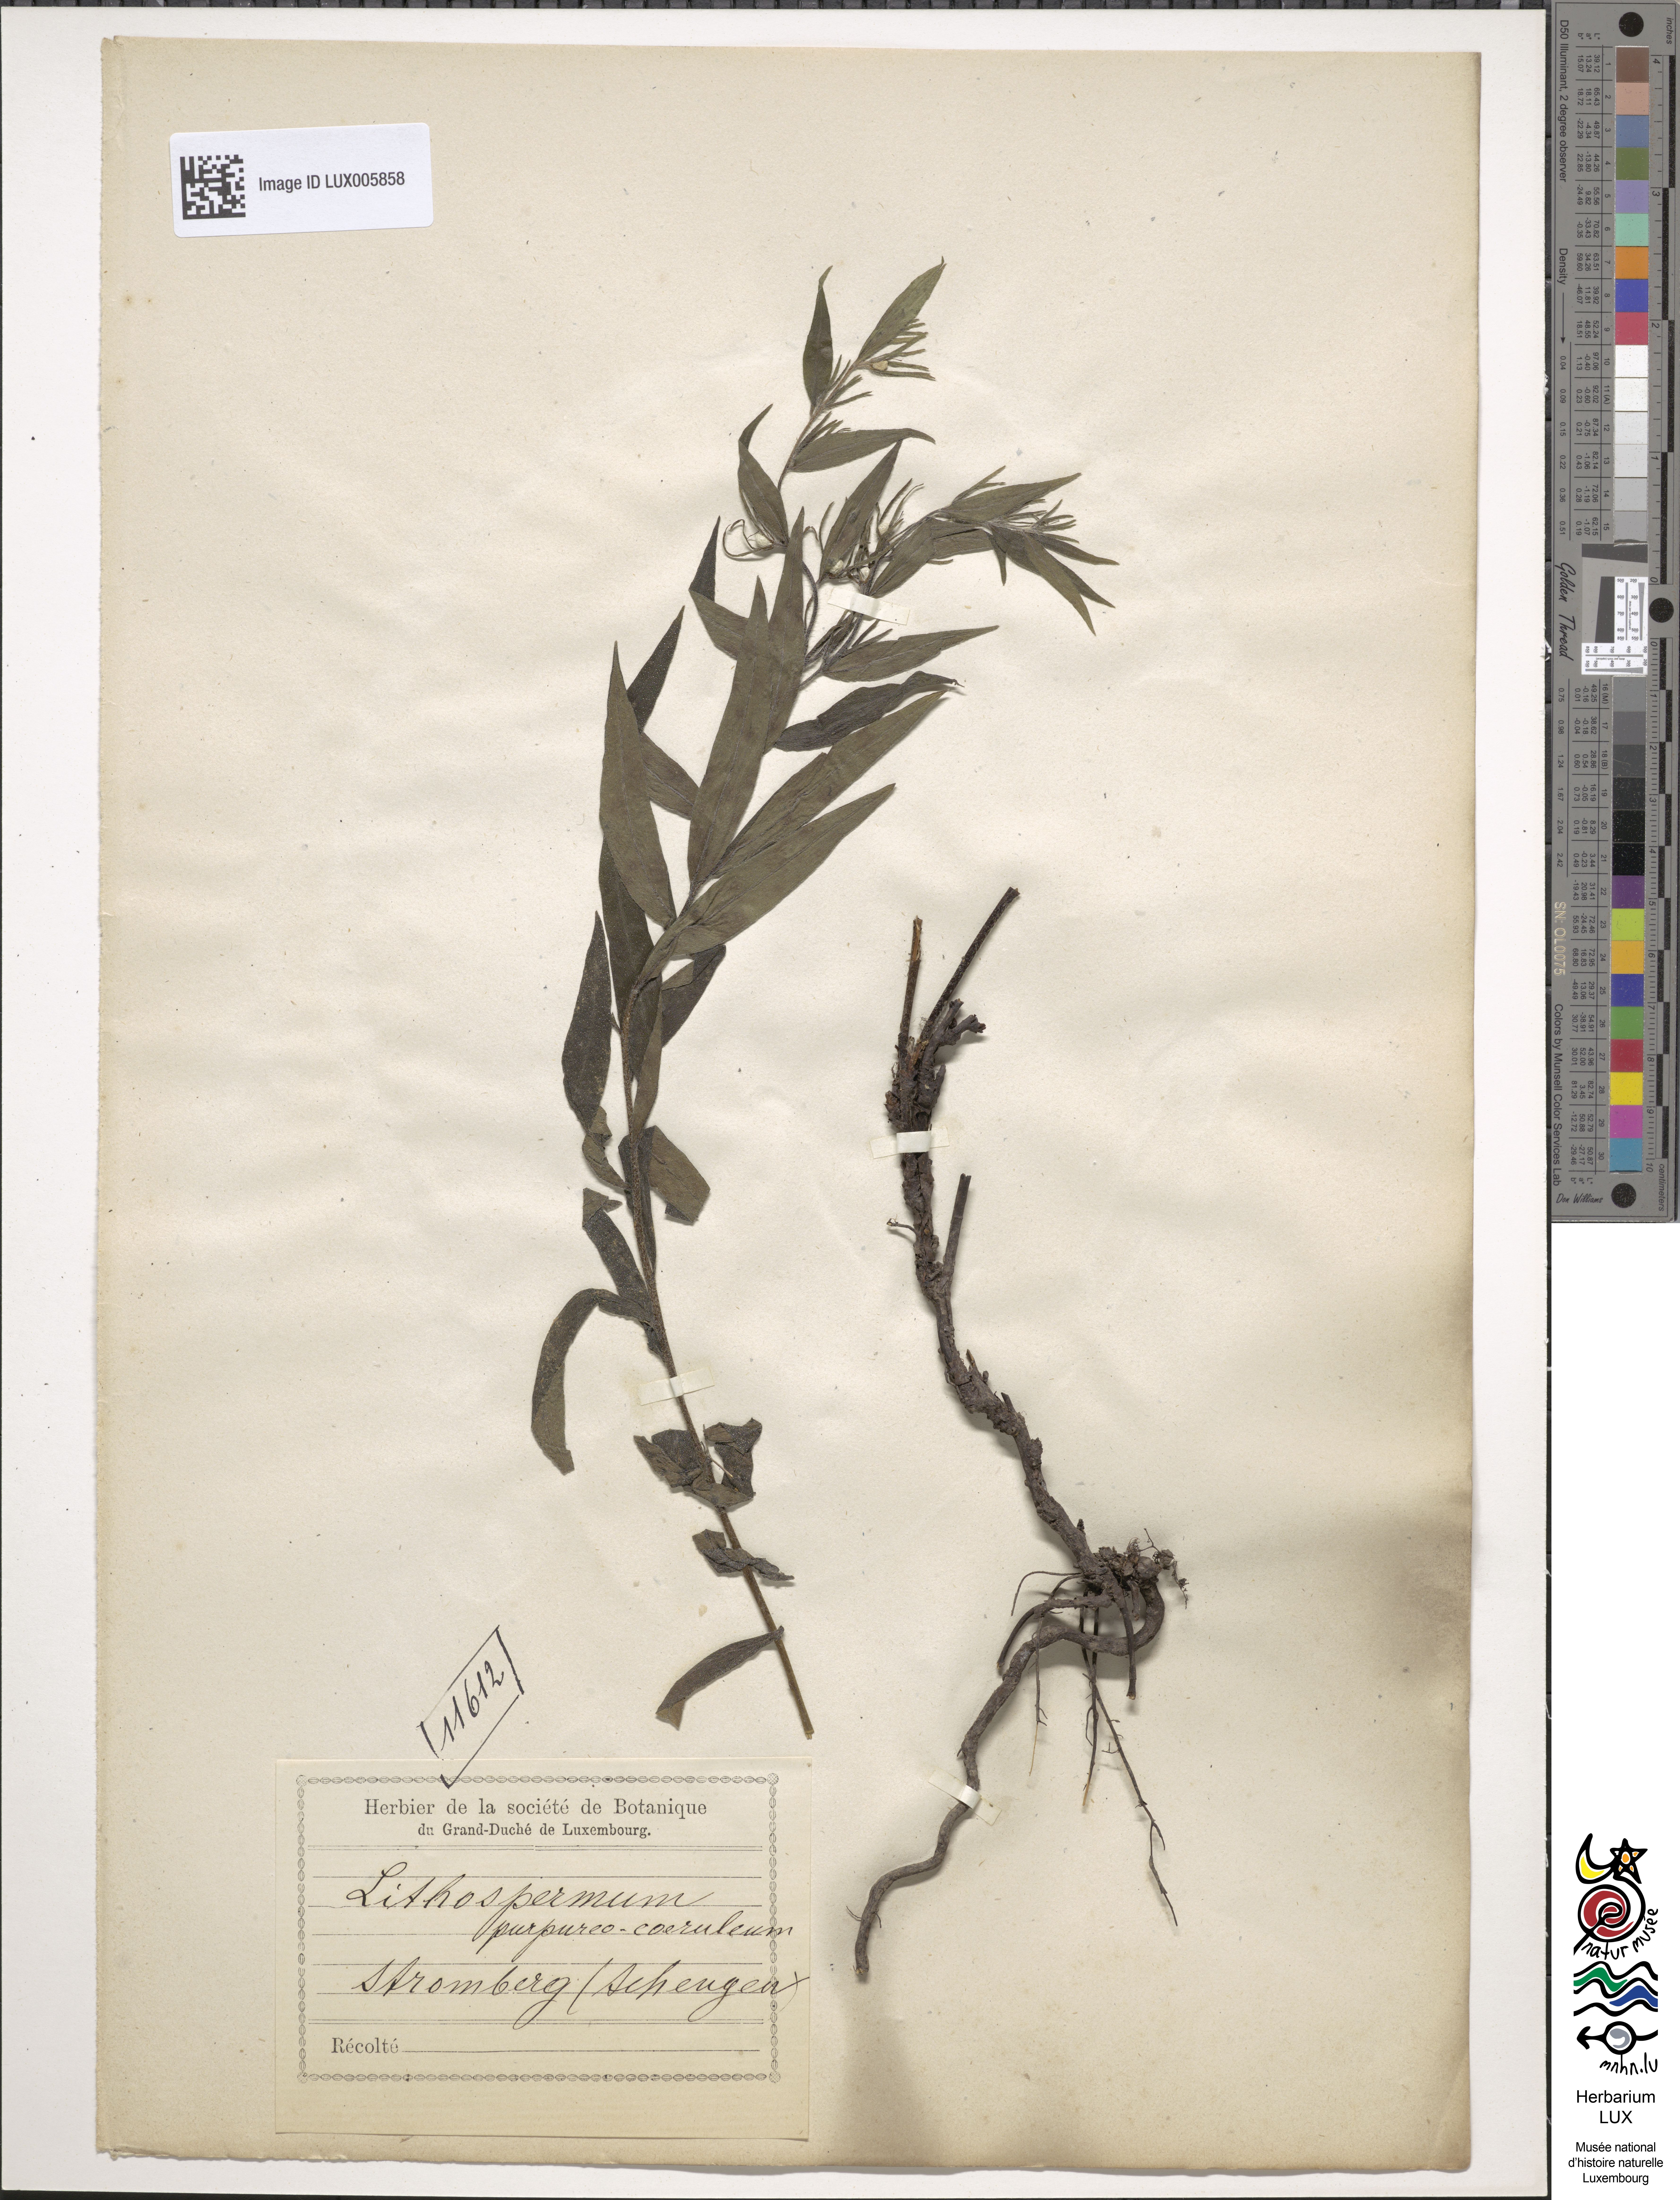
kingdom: Plantae
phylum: Tracheophyta
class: Magnoliopsida
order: Boraginales
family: Boraginaceae
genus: Aegonychon
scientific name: Aegonychon purpurocaeruleum
